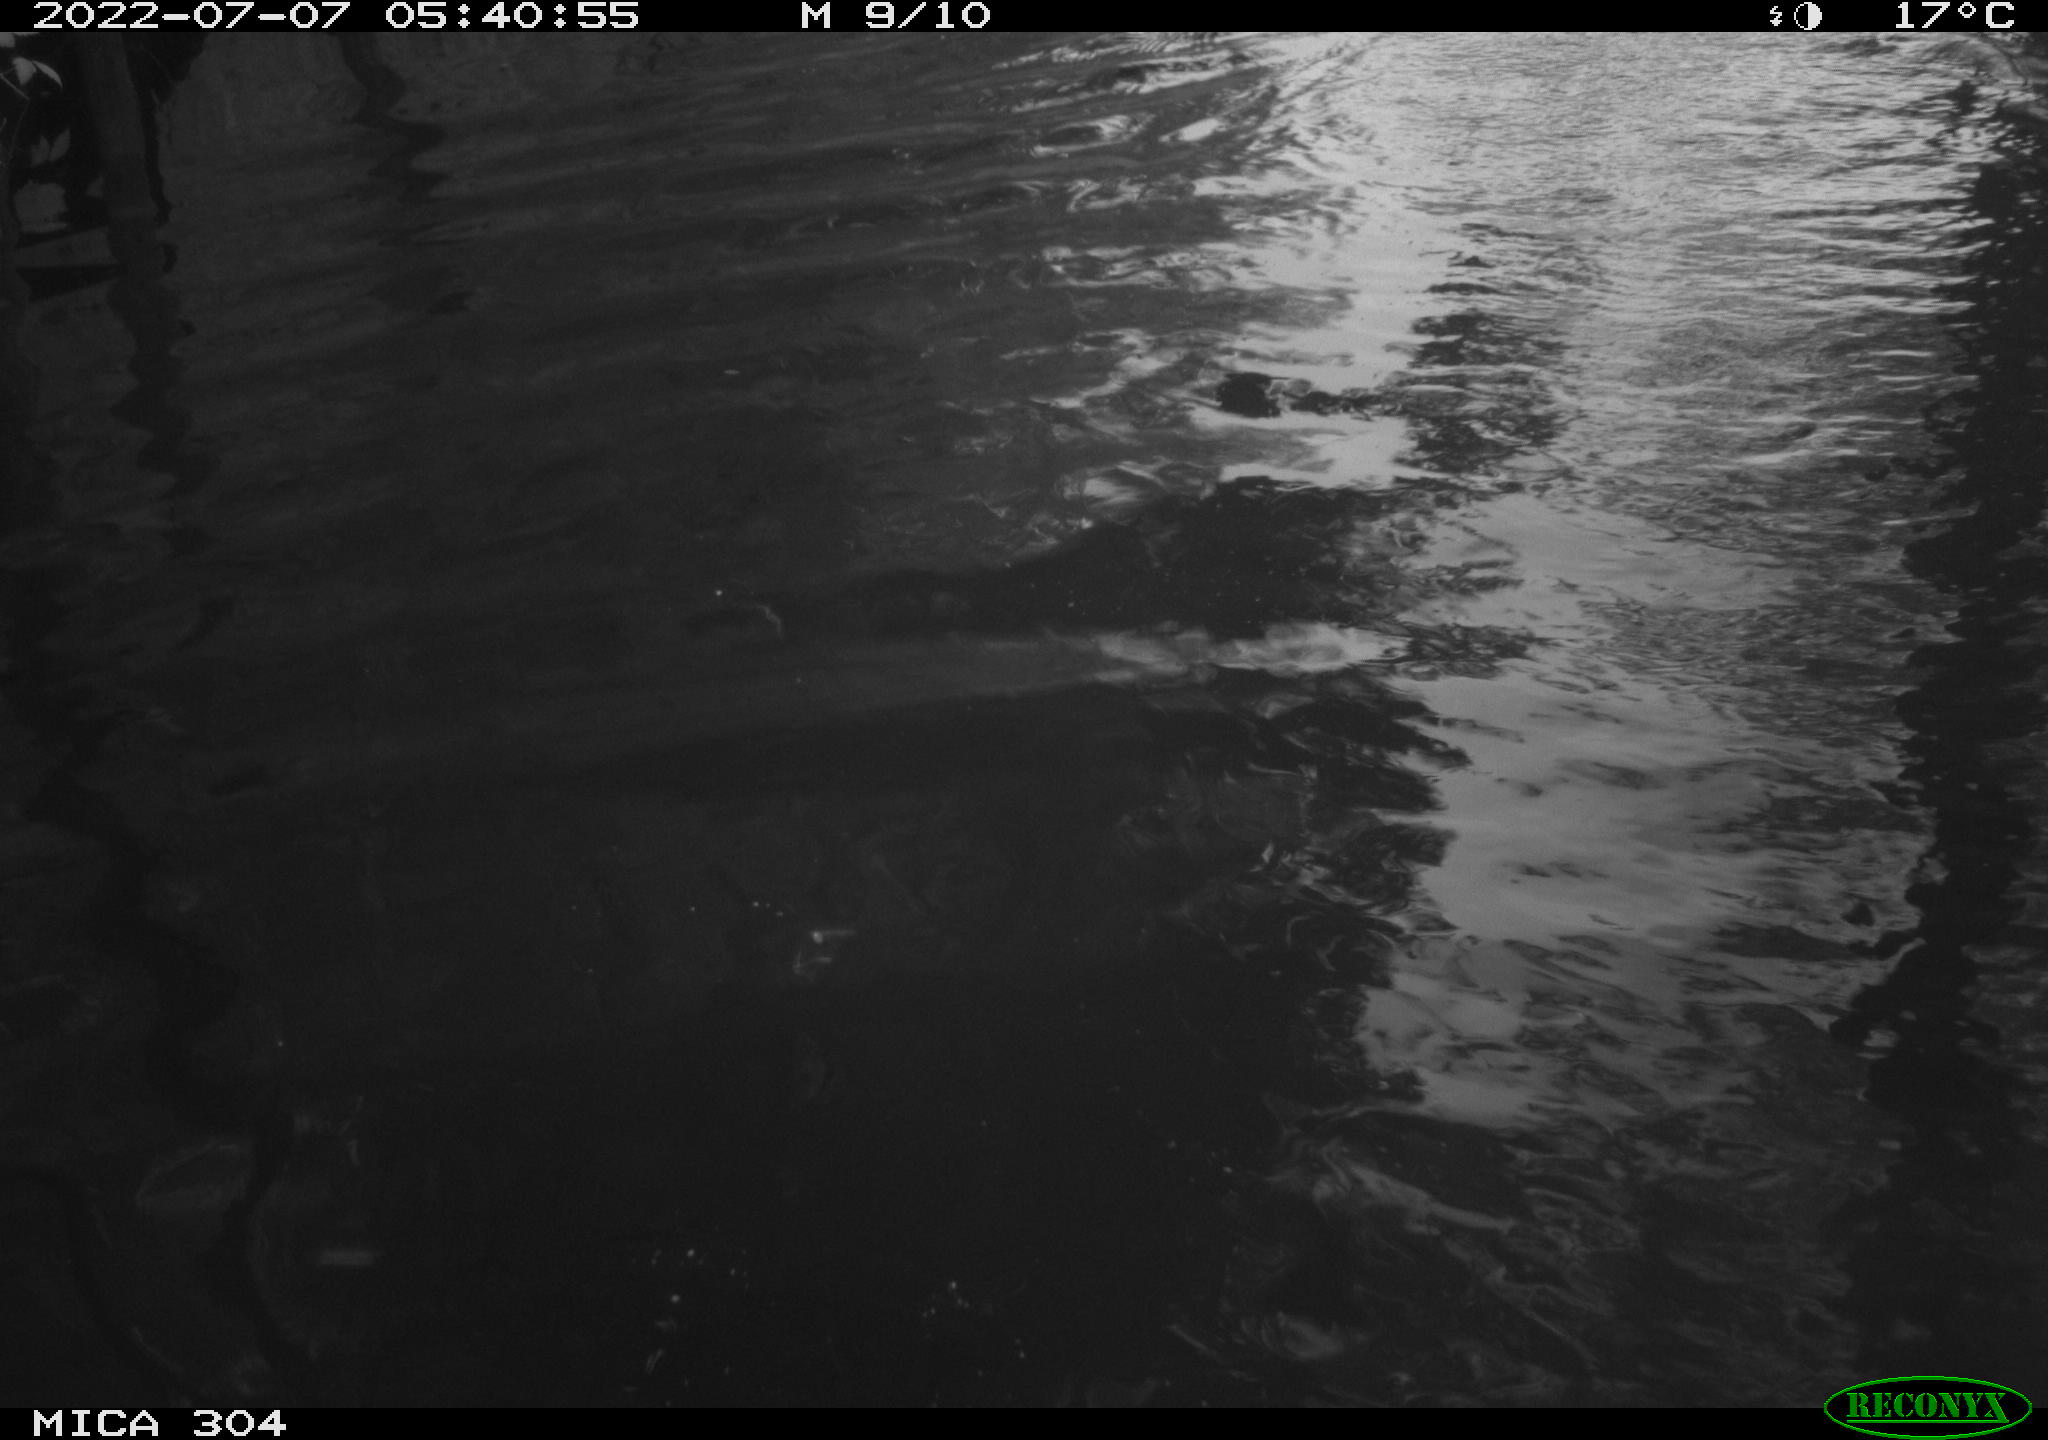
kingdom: Animalia
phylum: Chordata
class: Aves
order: Anseriformes
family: Anatidae
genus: Anas
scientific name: Anas platyrhynchos
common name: Mallard
